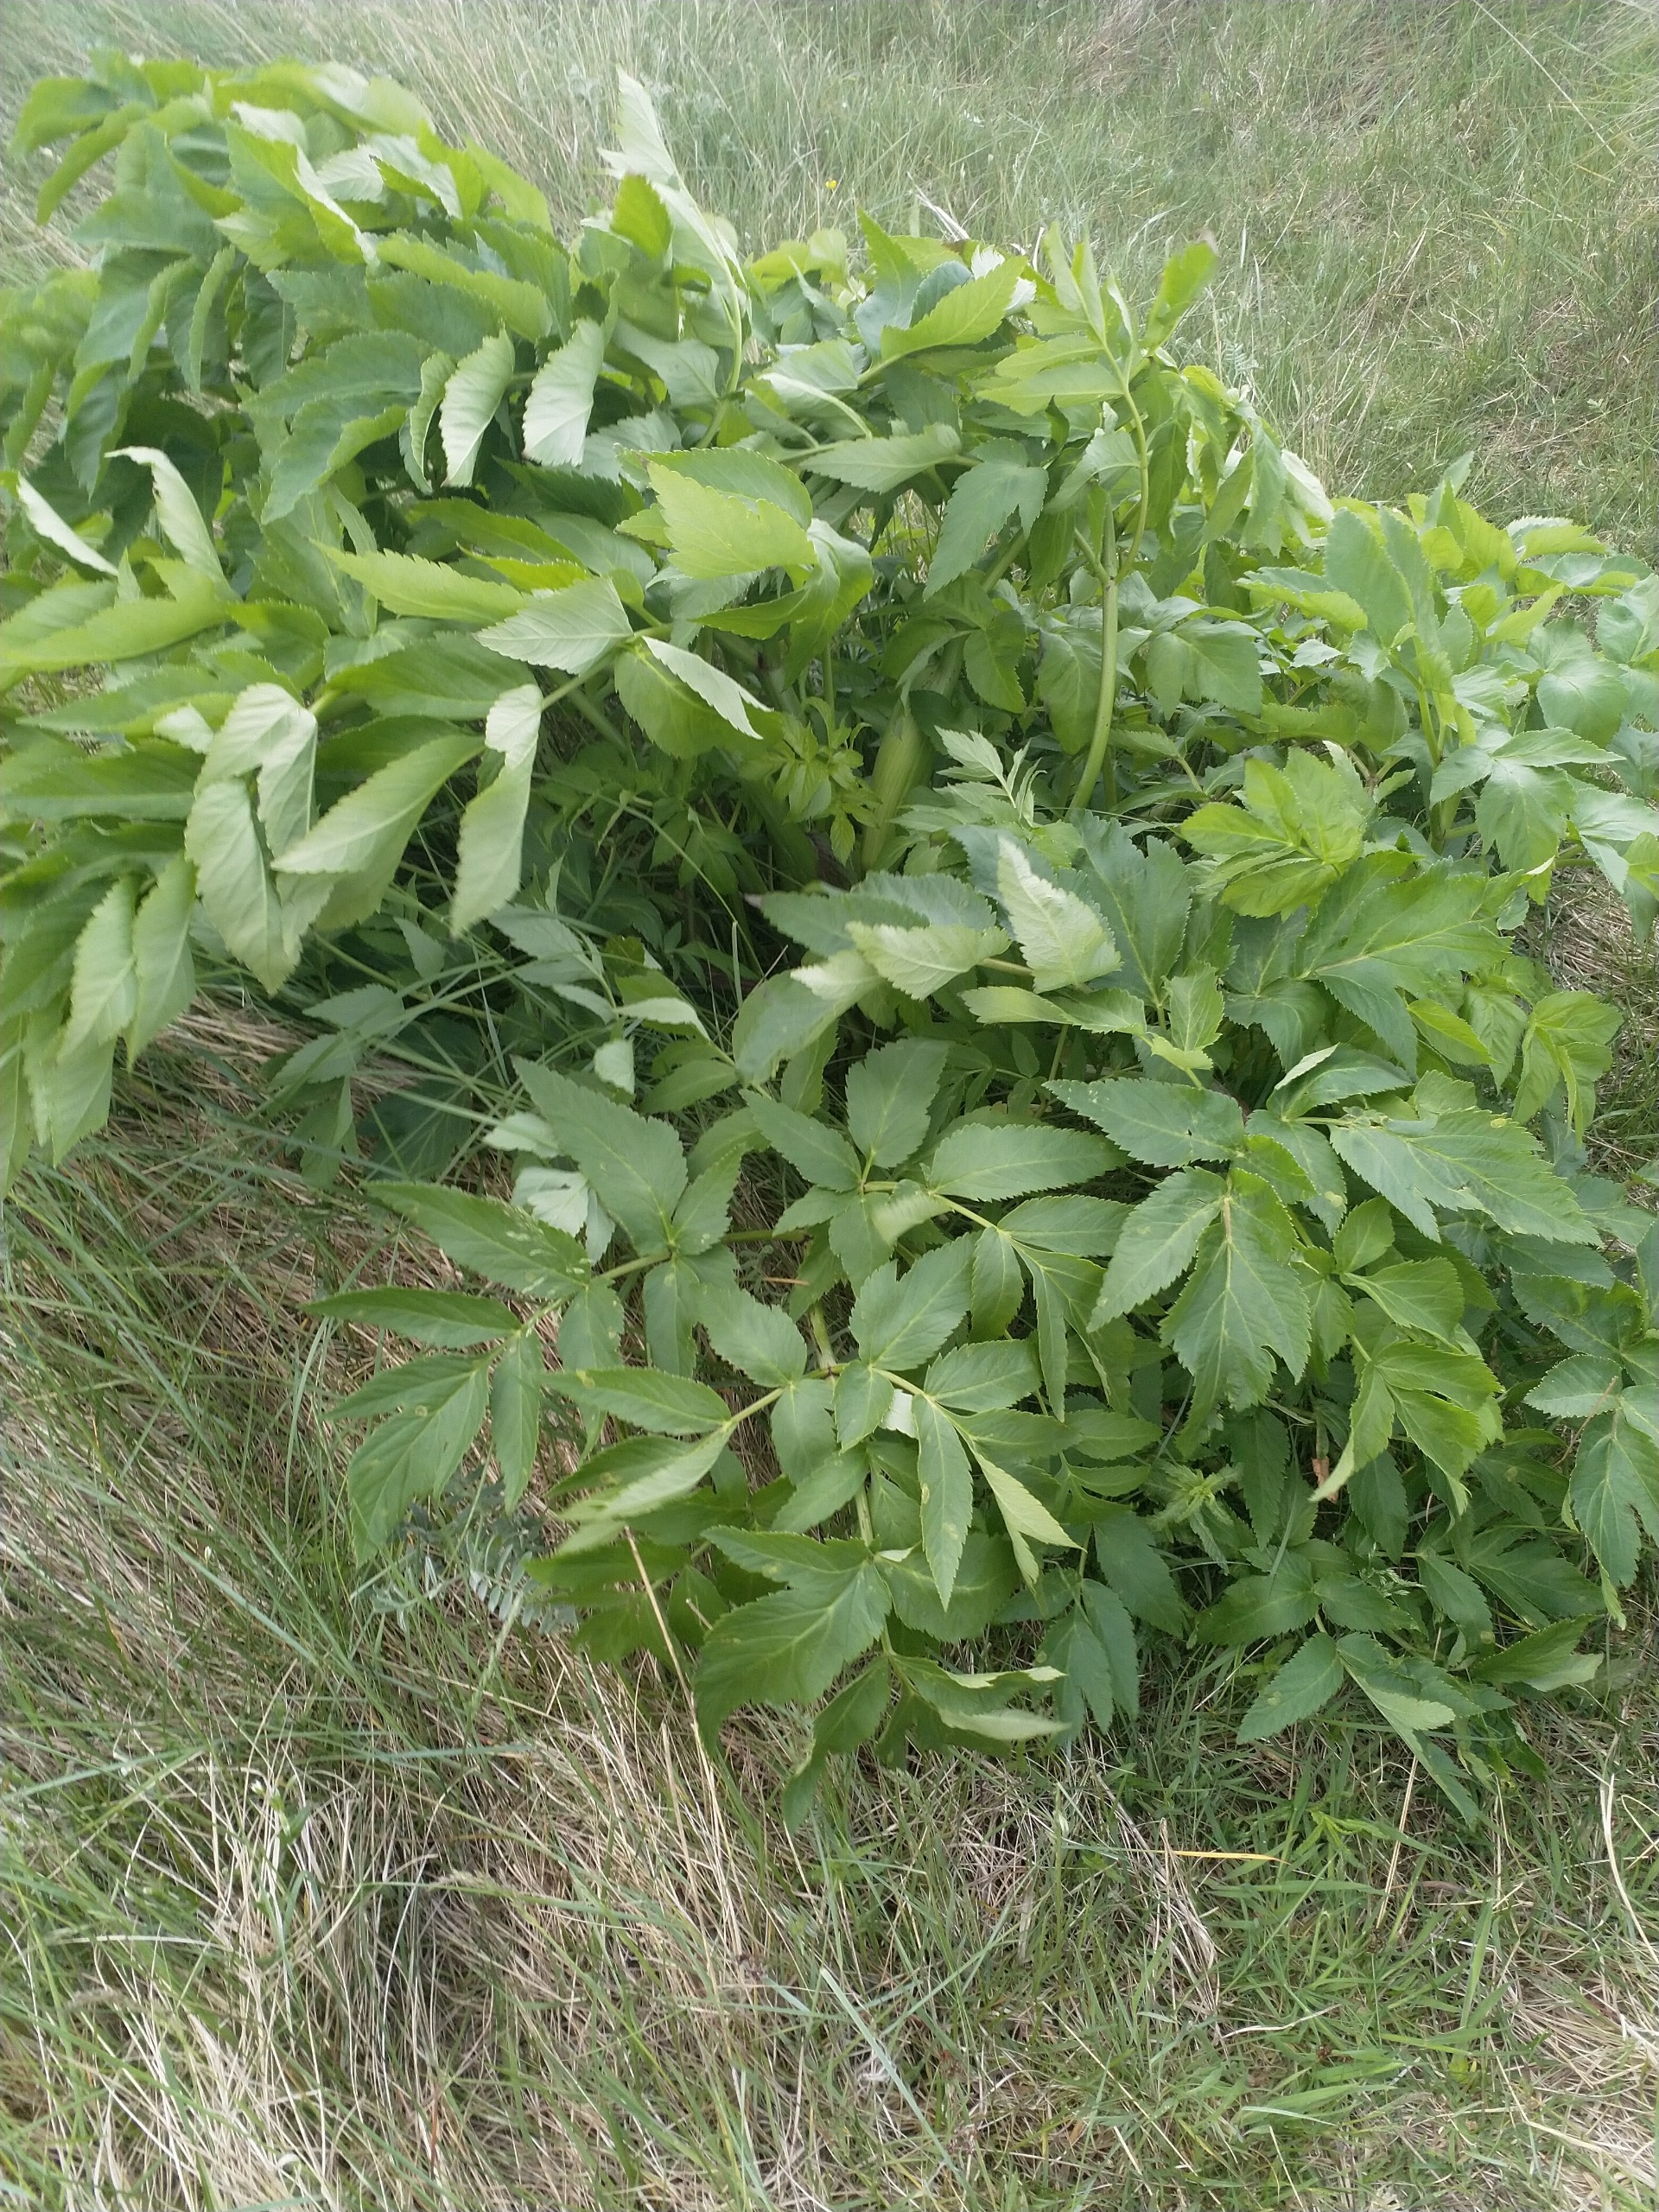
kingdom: Plantae
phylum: Tracheophyta
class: Magnoliopsida
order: Apiales
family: Apiaceae
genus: Angelica
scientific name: Angelica archangelica
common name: Strand-kvan
